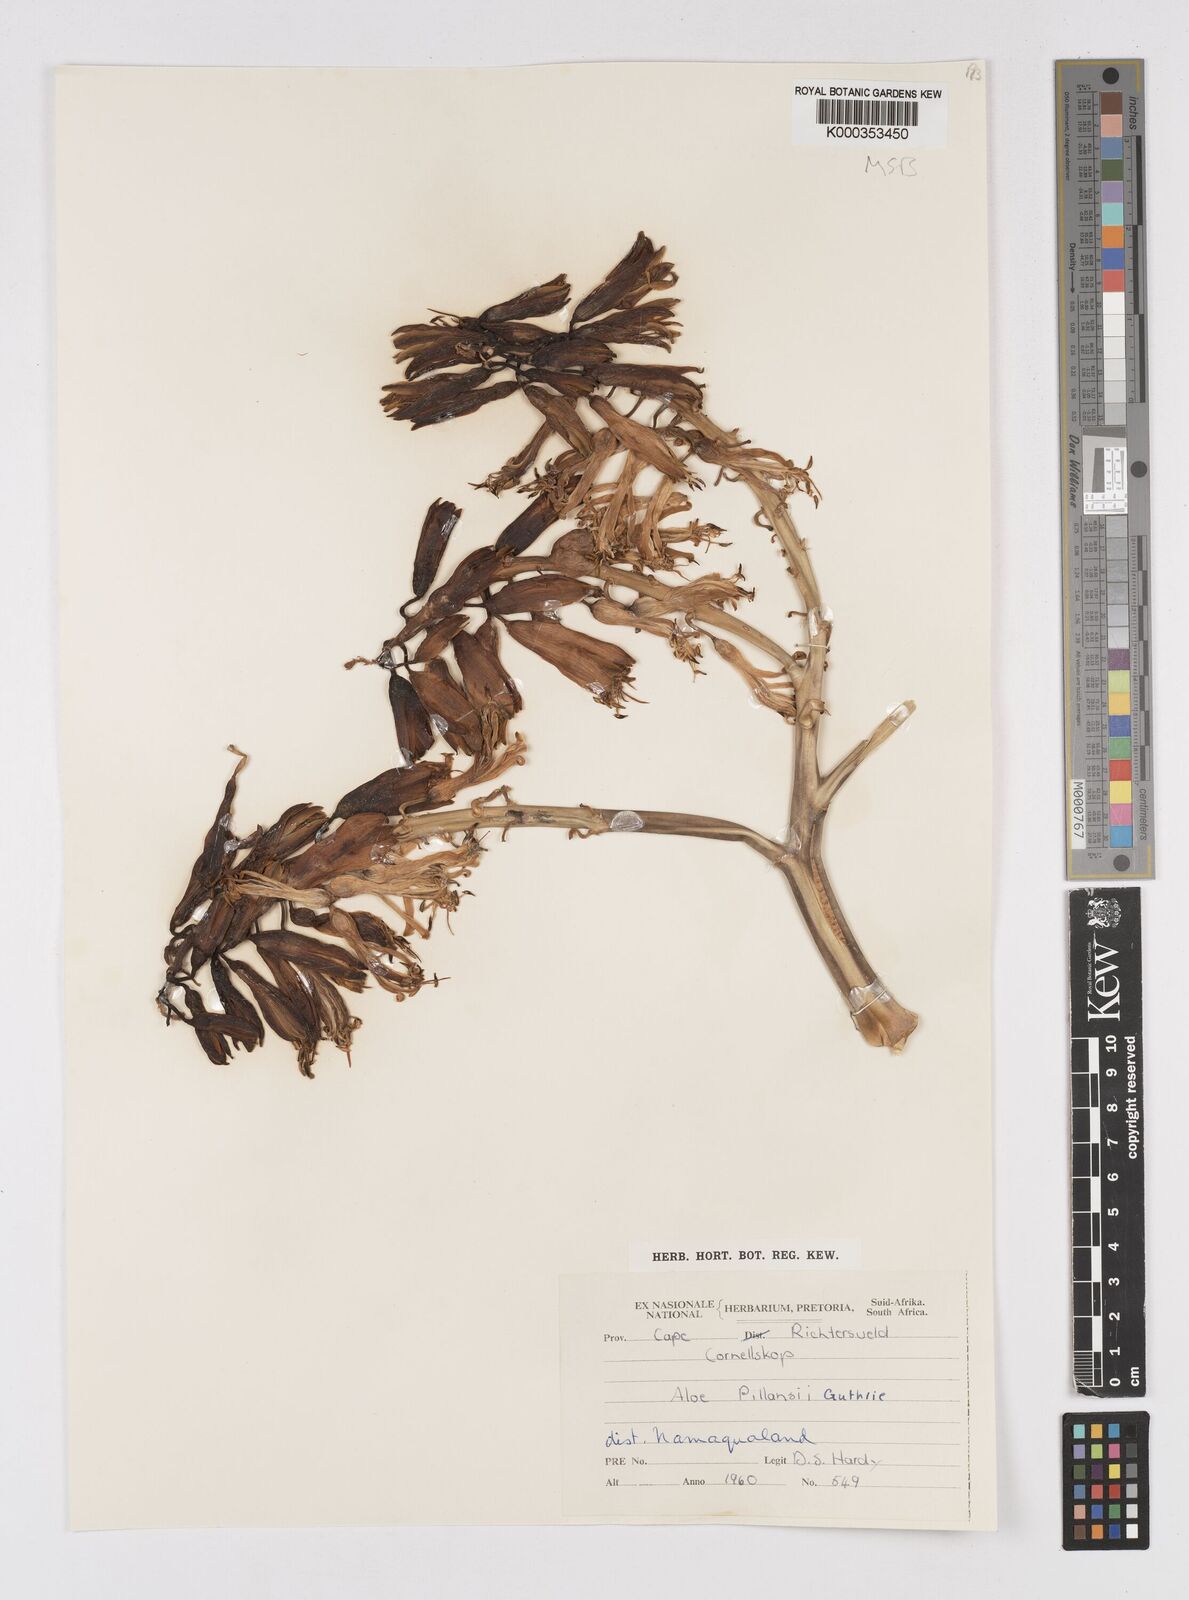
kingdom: Plantae
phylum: Tracheophyta
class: Liliopsida
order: Asparagales
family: Asphodelaceae
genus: Aloidendron
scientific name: Aloidendron pillansii
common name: Bastard quiver tree
